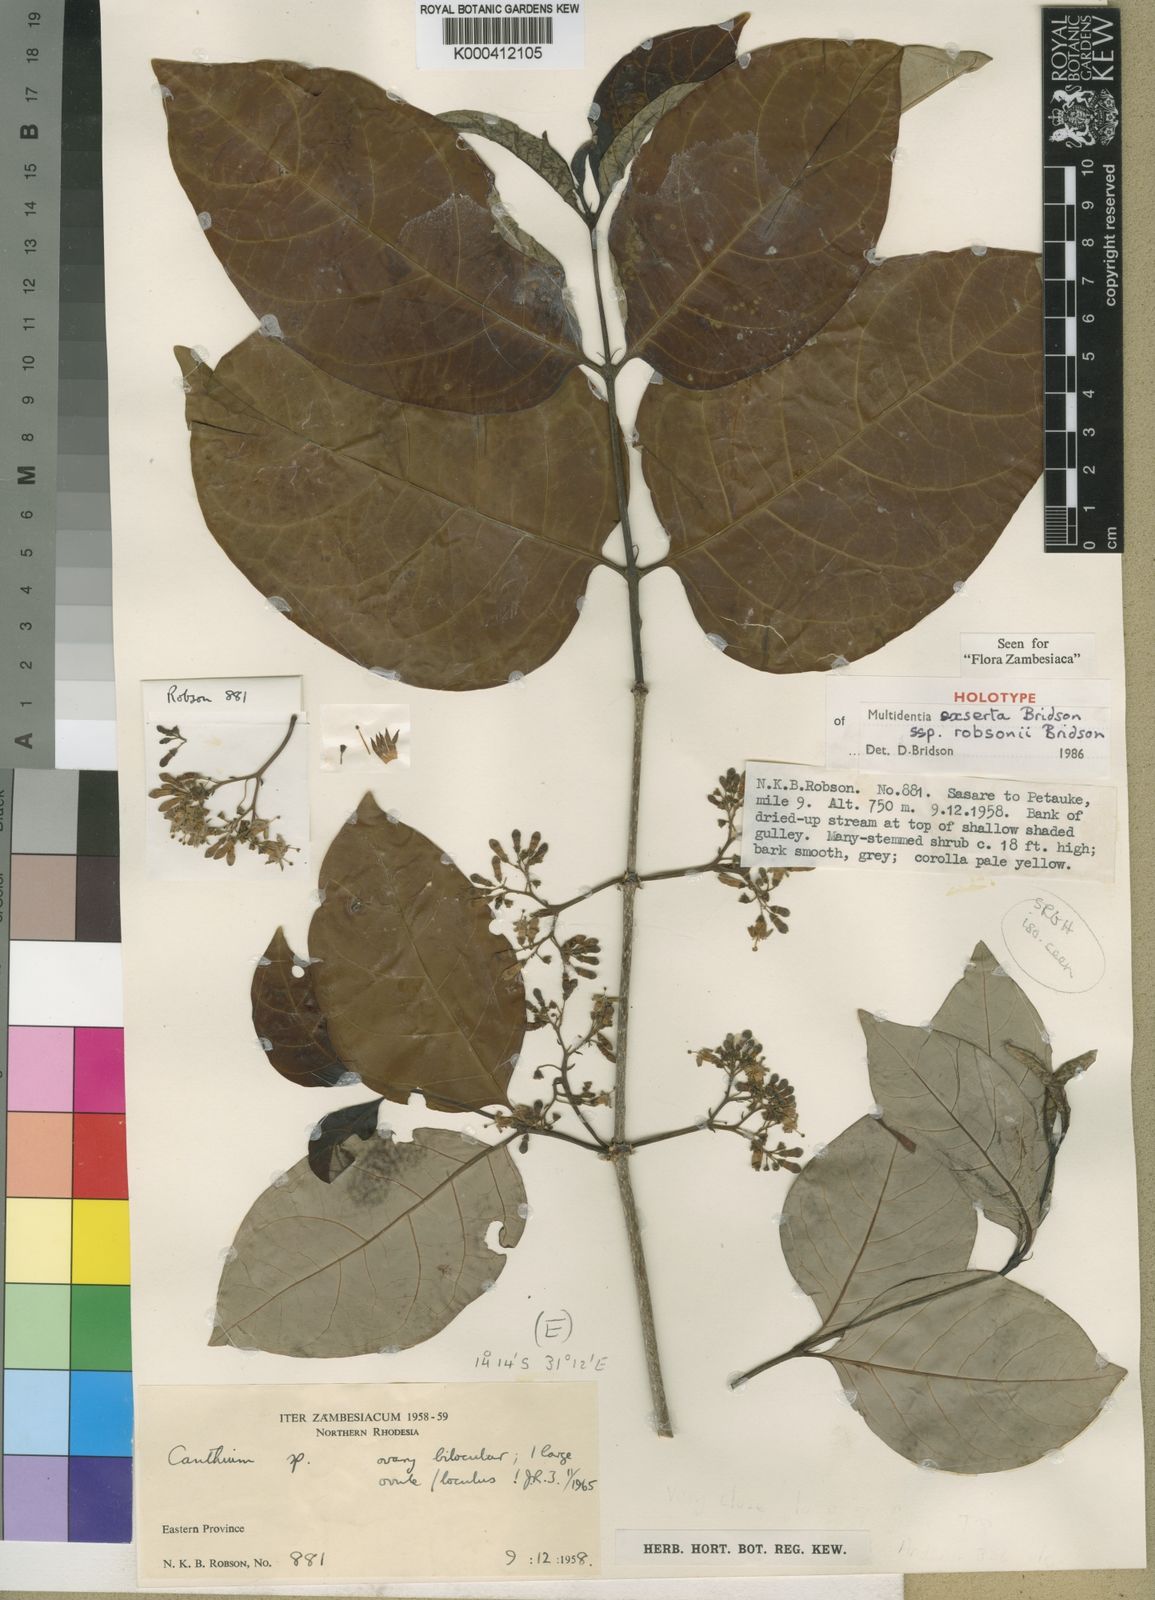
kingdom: Plantae
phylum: Tracheophyta
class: Magnoliopsida
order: Gentianales
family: Rubiaceae
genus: Multidentia
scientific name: Multidentia exserta
